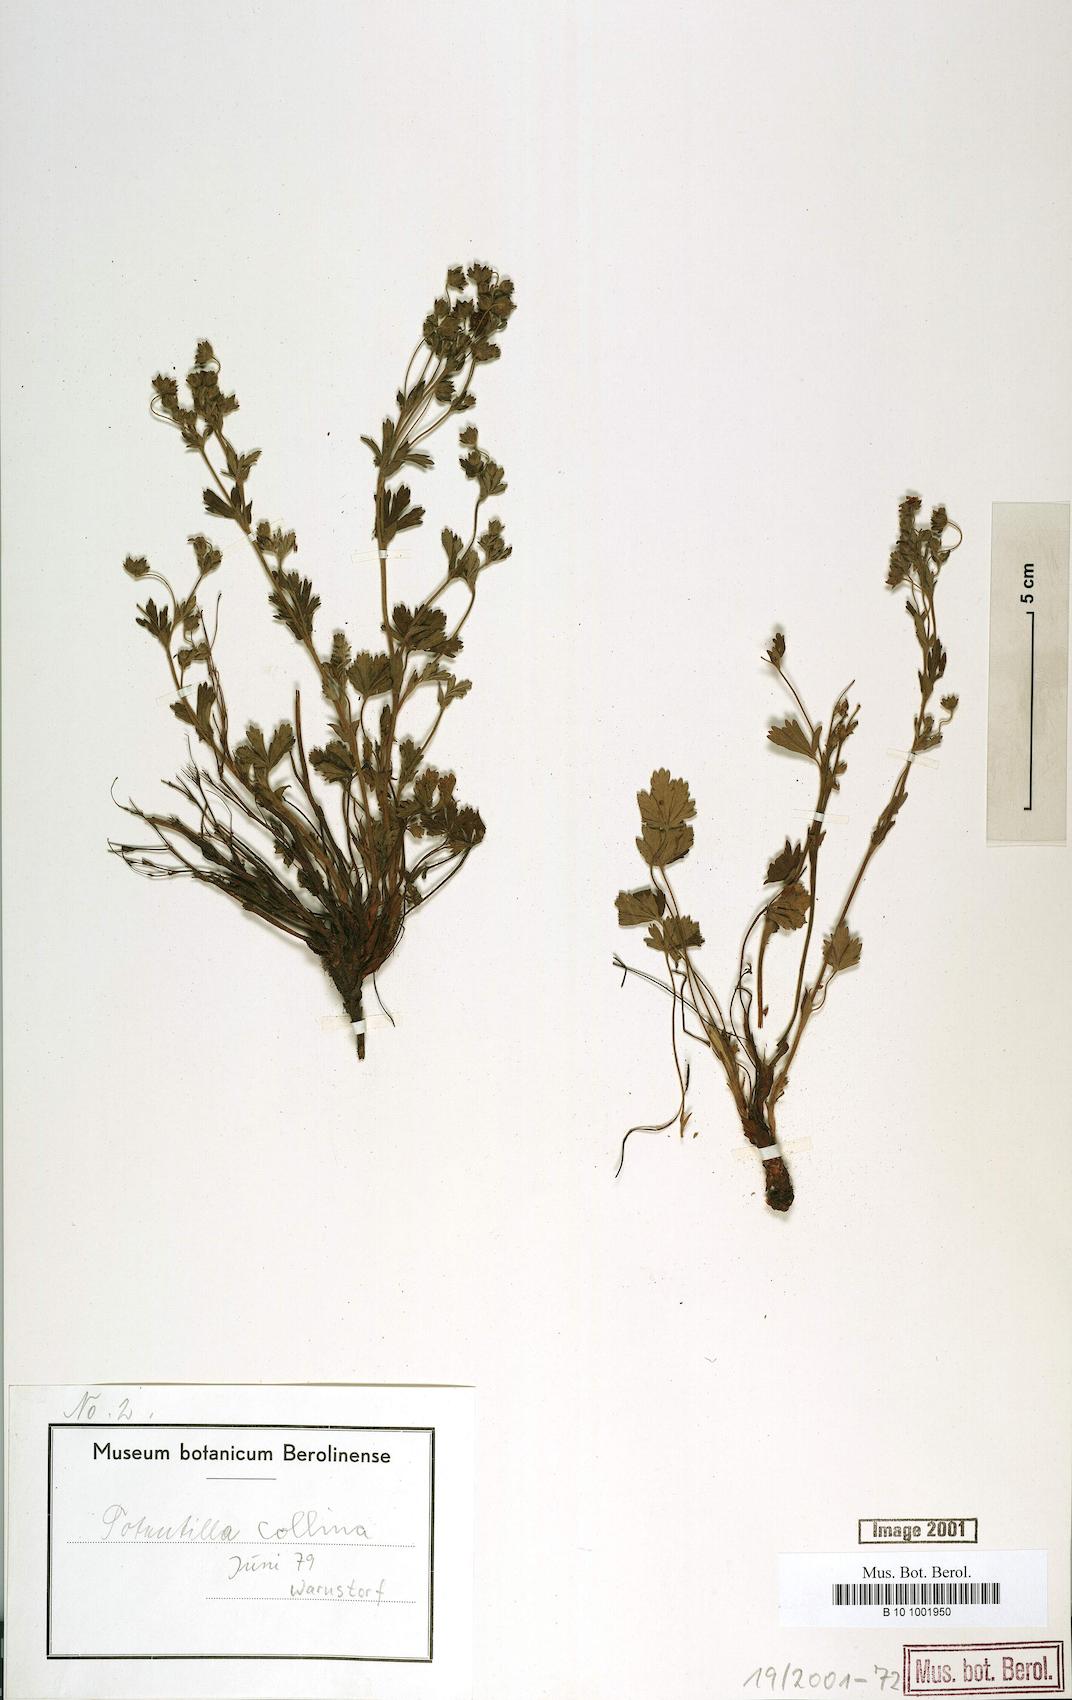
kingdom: Plantae
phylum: Tracheophyta
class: Magnoliopsida
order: Rosales
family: Rosaceae
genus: Potentilla
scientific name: Potentilla collina
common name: Palmleaf cinquefoil
